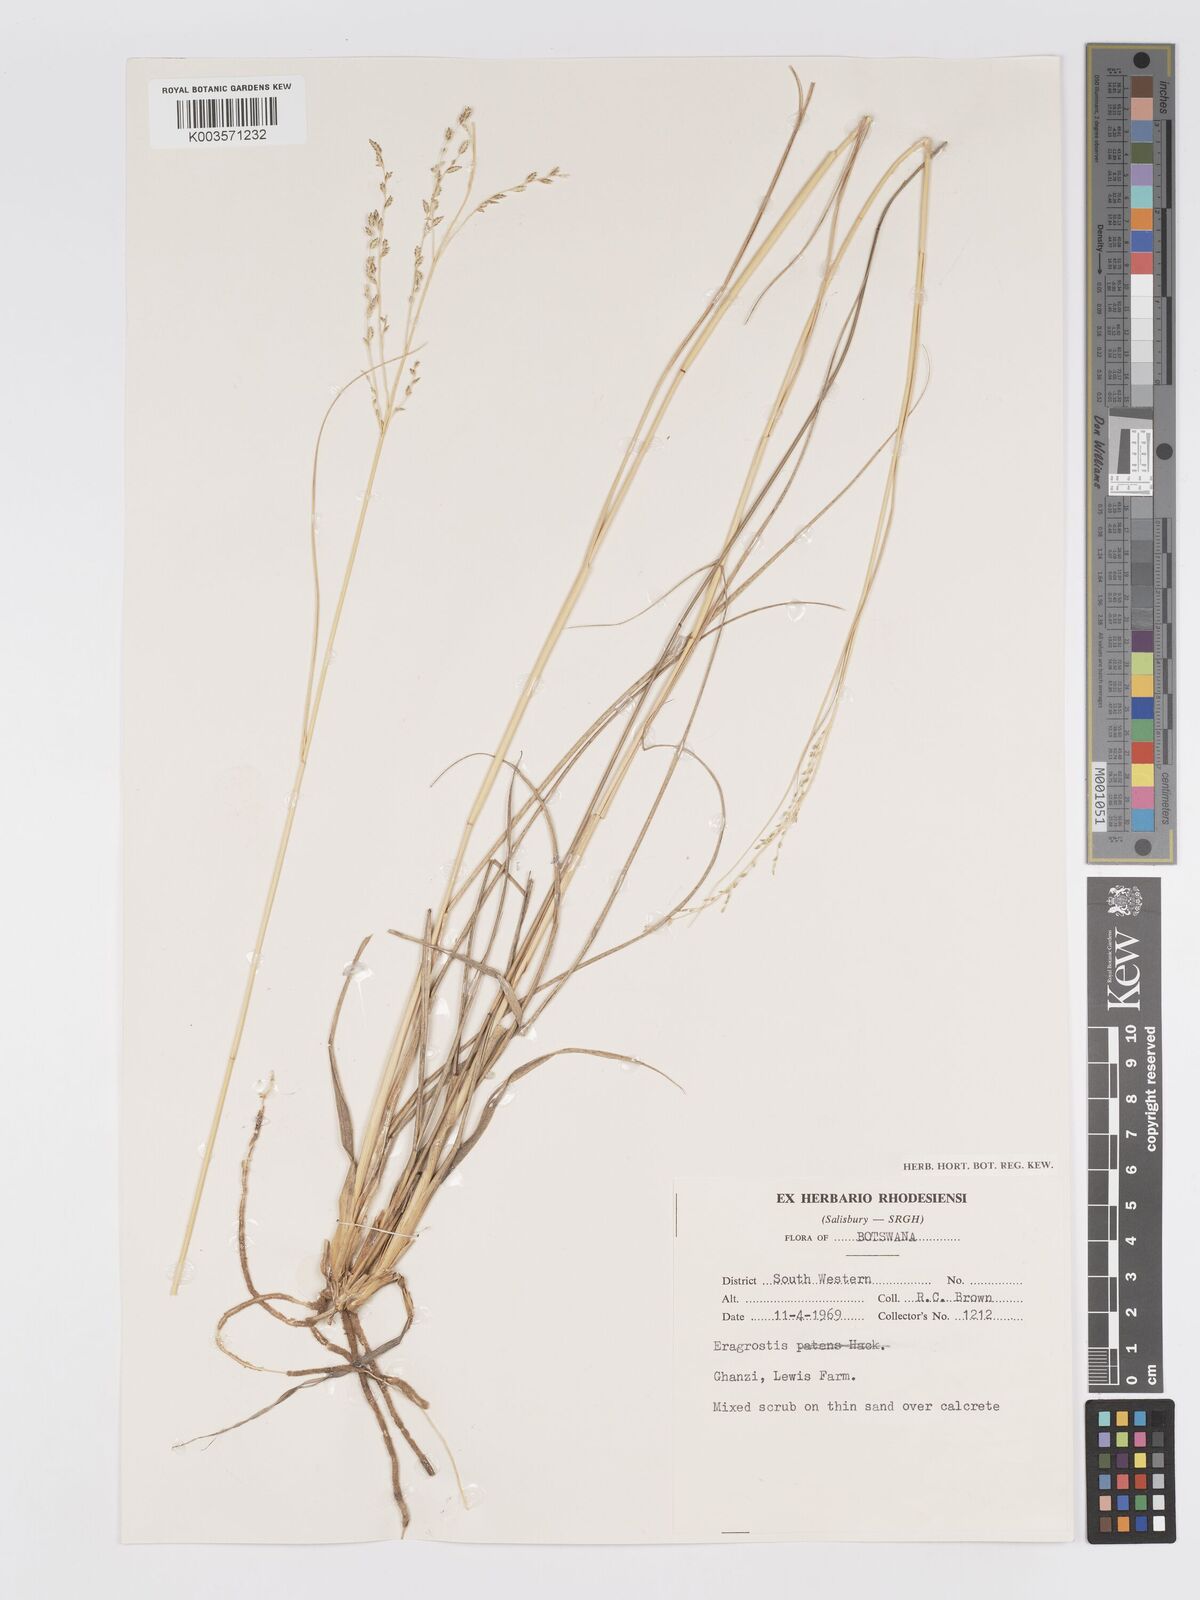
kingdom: Plantae
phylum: Tracheophyta
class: Liliopsida
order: Poales
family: Poaceae
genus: Eragrostis
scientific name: Eragrostis pallens
